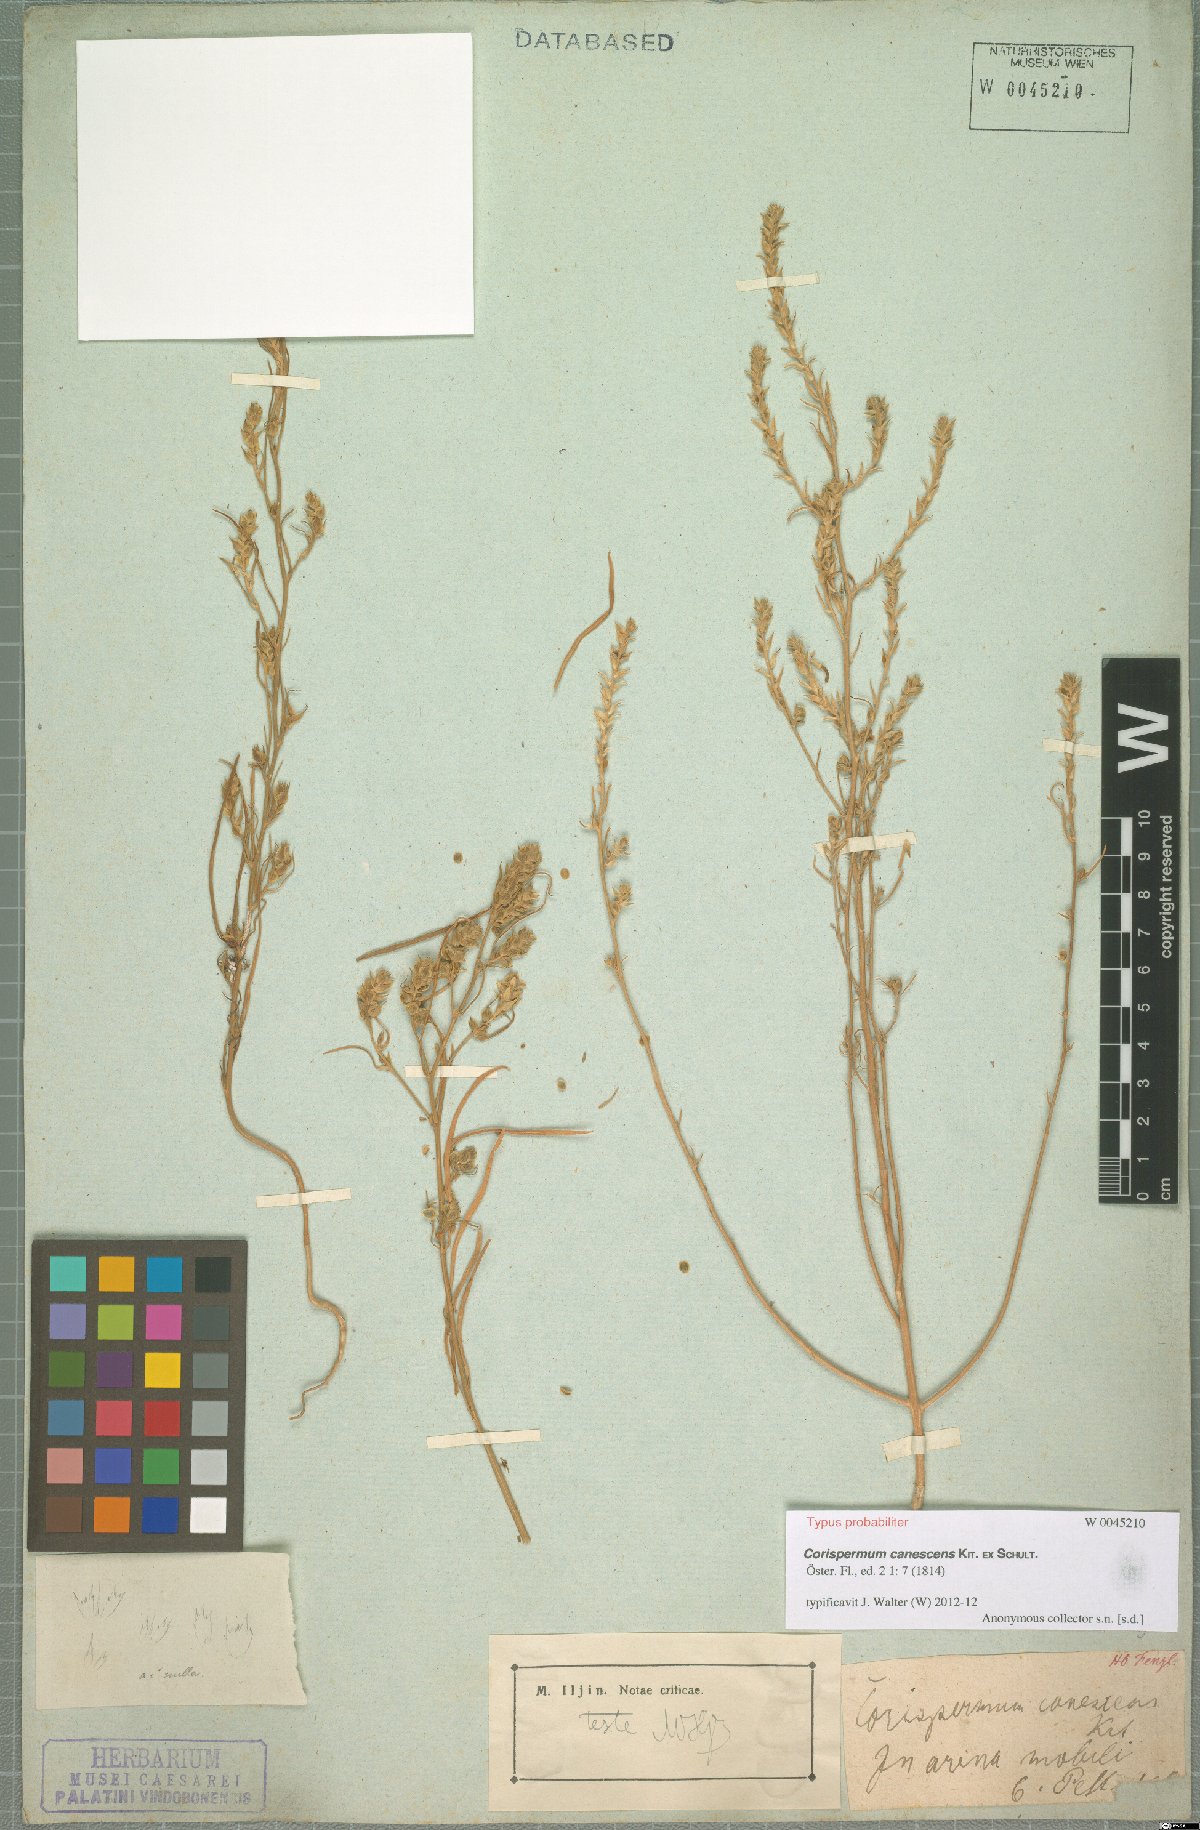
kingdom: Plantae
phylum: Tracheophyta
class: Magnoliopsida
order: Caryophyllales
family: Amaranthaceae
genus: Corispermum
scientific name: Corispermum canescens
